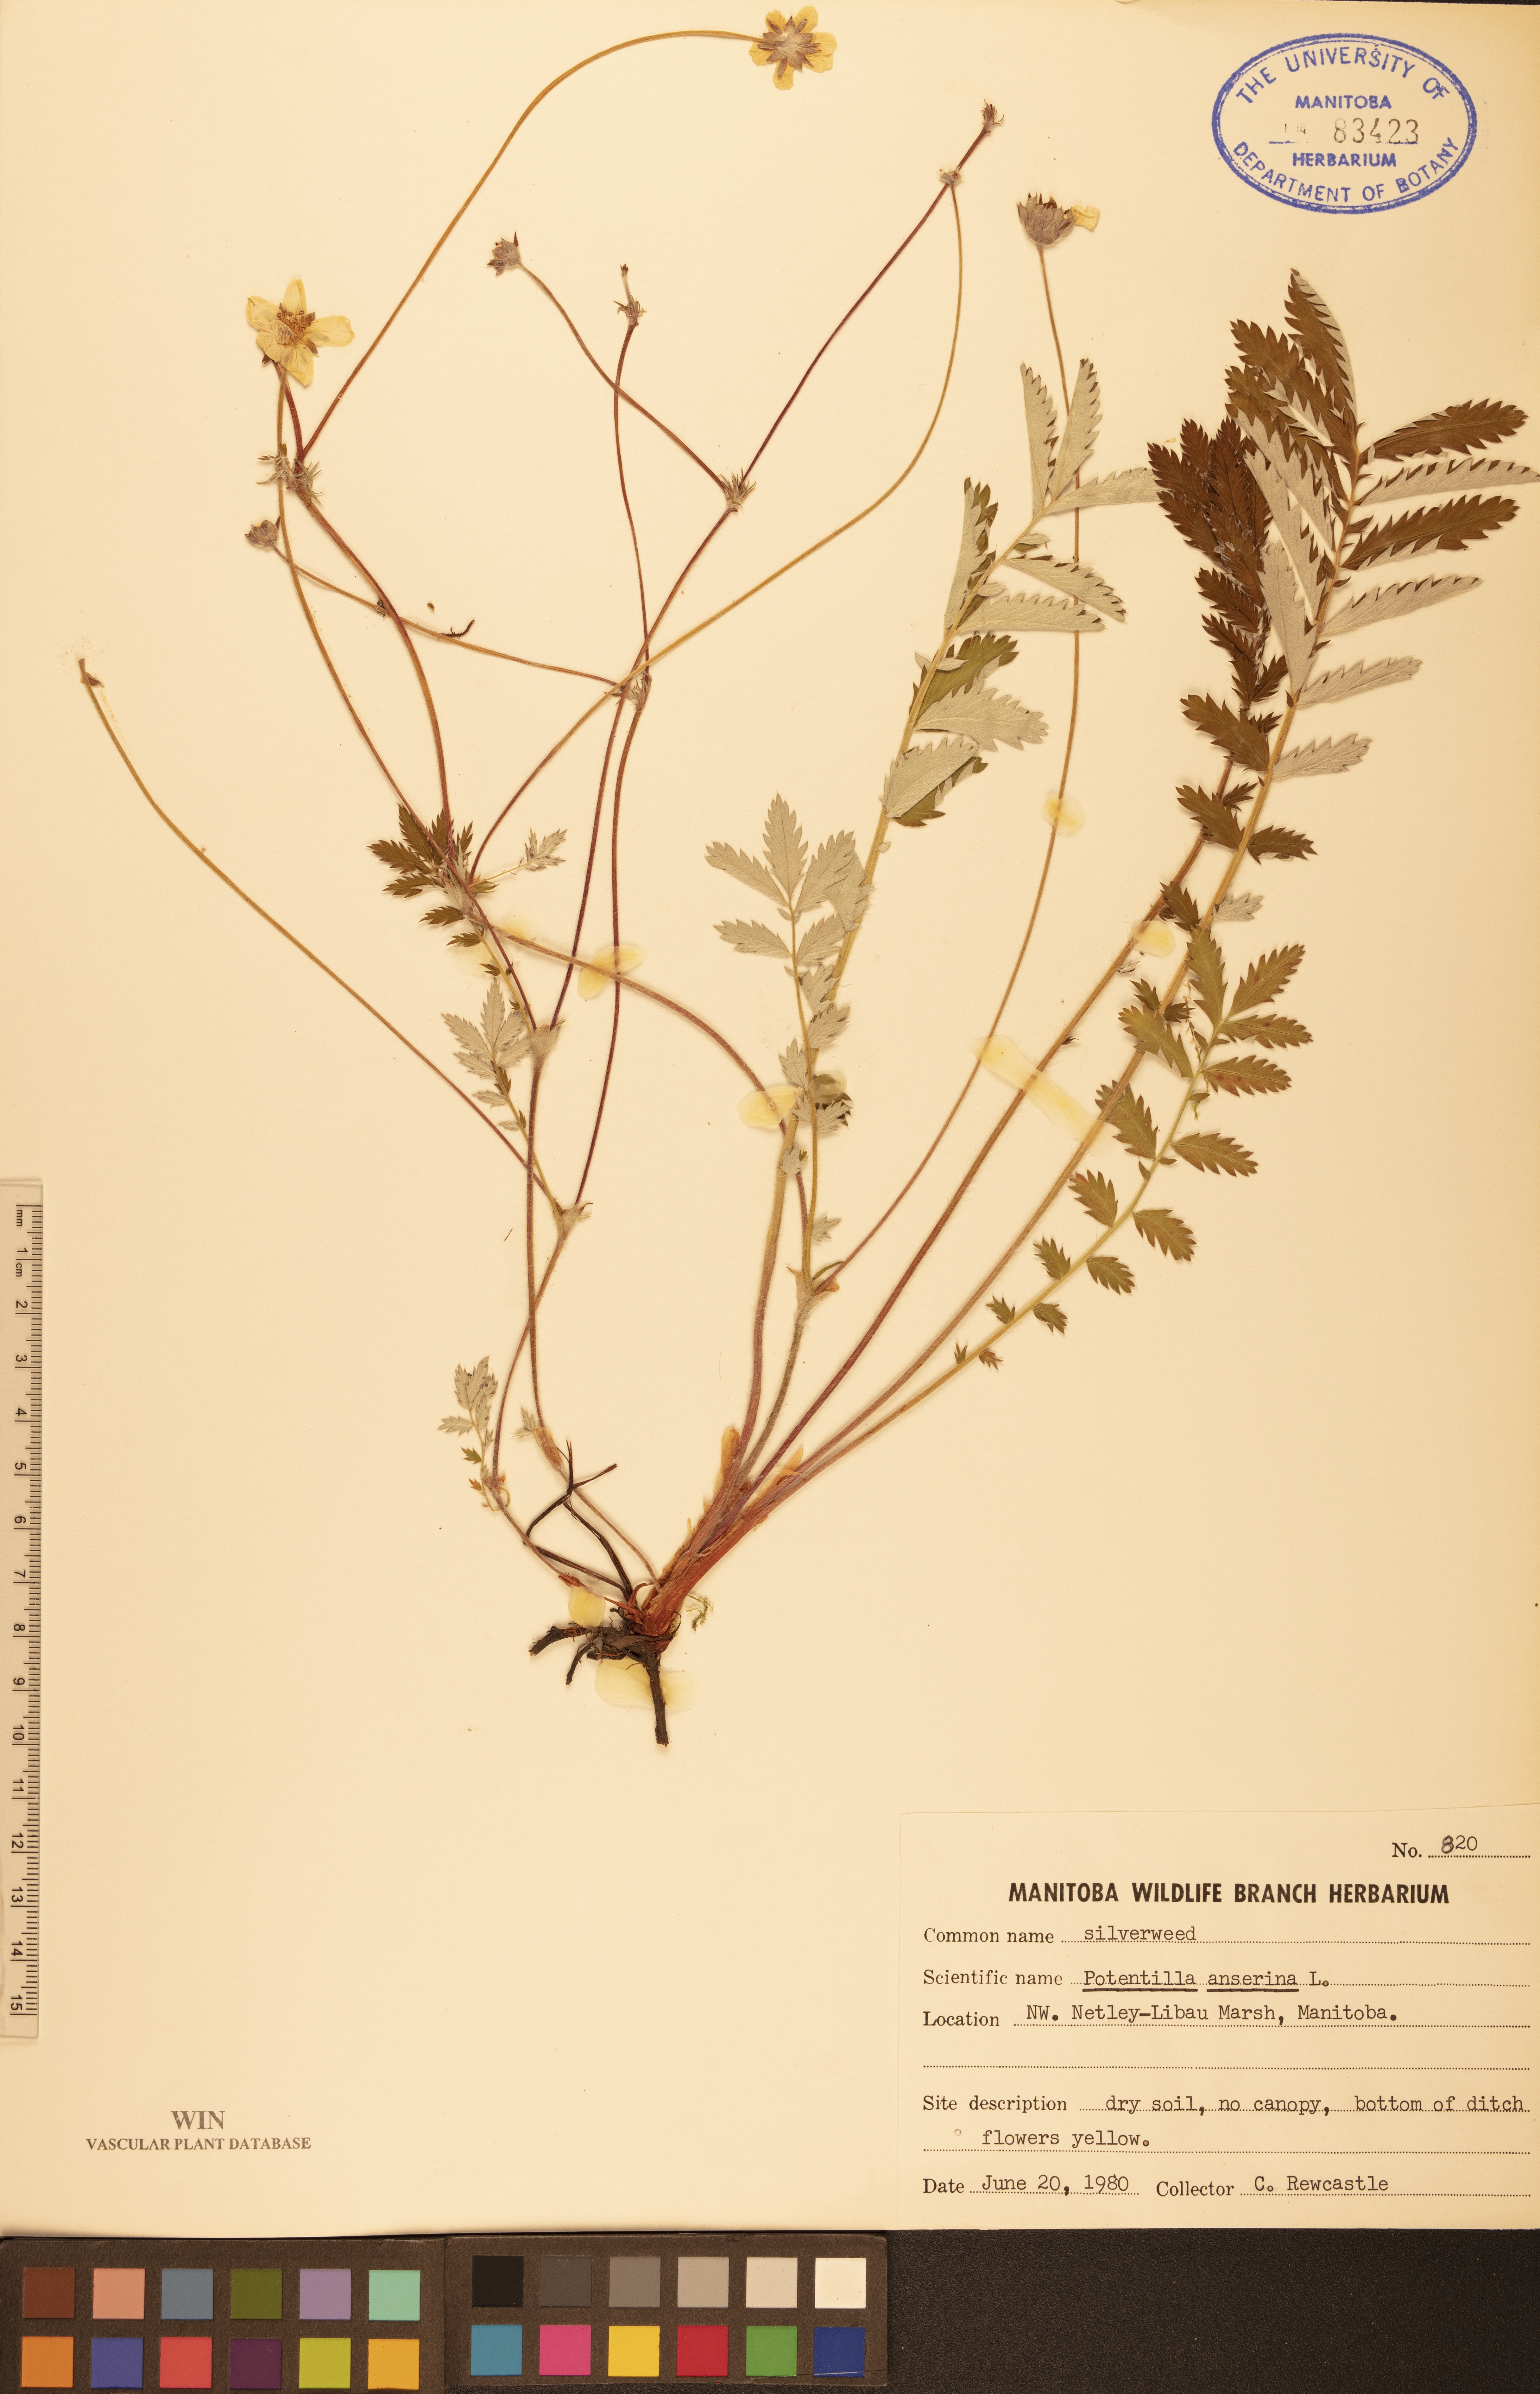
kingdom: Plantae
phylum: Tracheophyta
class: Magnoliopsida
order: Rosales
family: Rosaceae
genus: Argentina
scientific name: Argentina anserina
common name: Common silverweed
